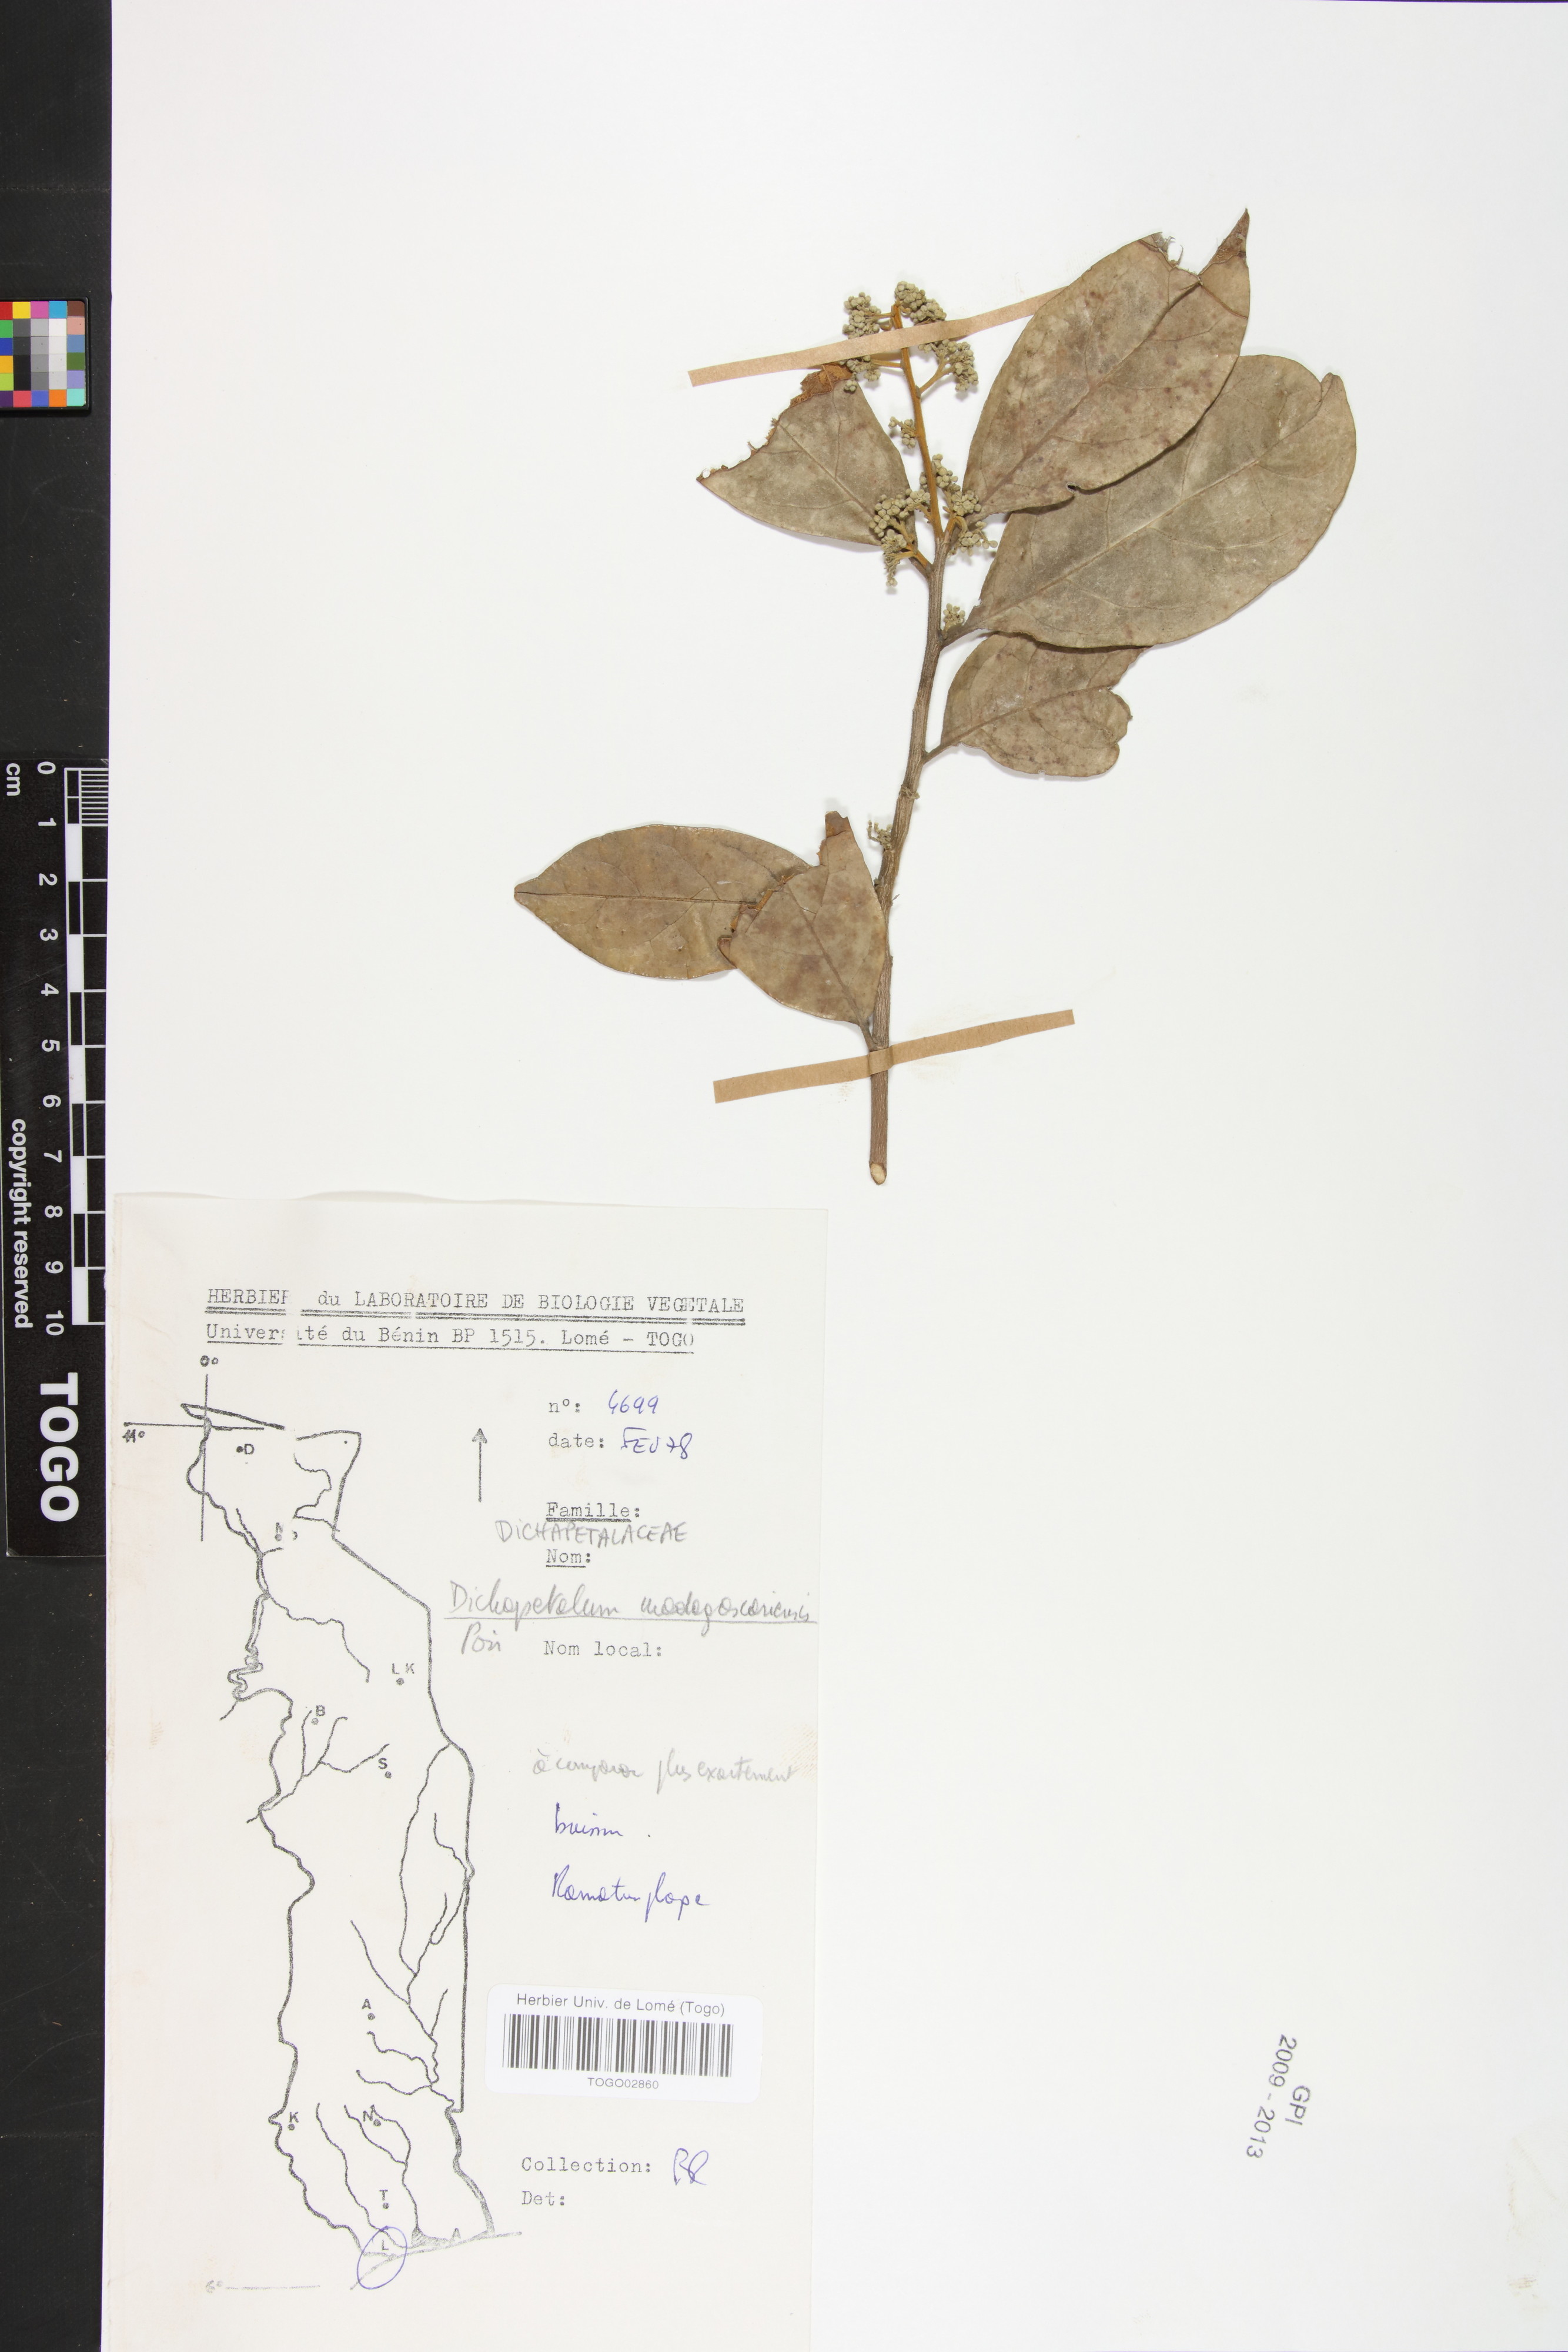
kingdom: Plantae
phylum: Tracheophyta
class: Magnoliopsida
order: Malpighiales
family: Dichapetalaceae
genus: Dichapetalum
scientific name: Dichapetalum madagascariense
